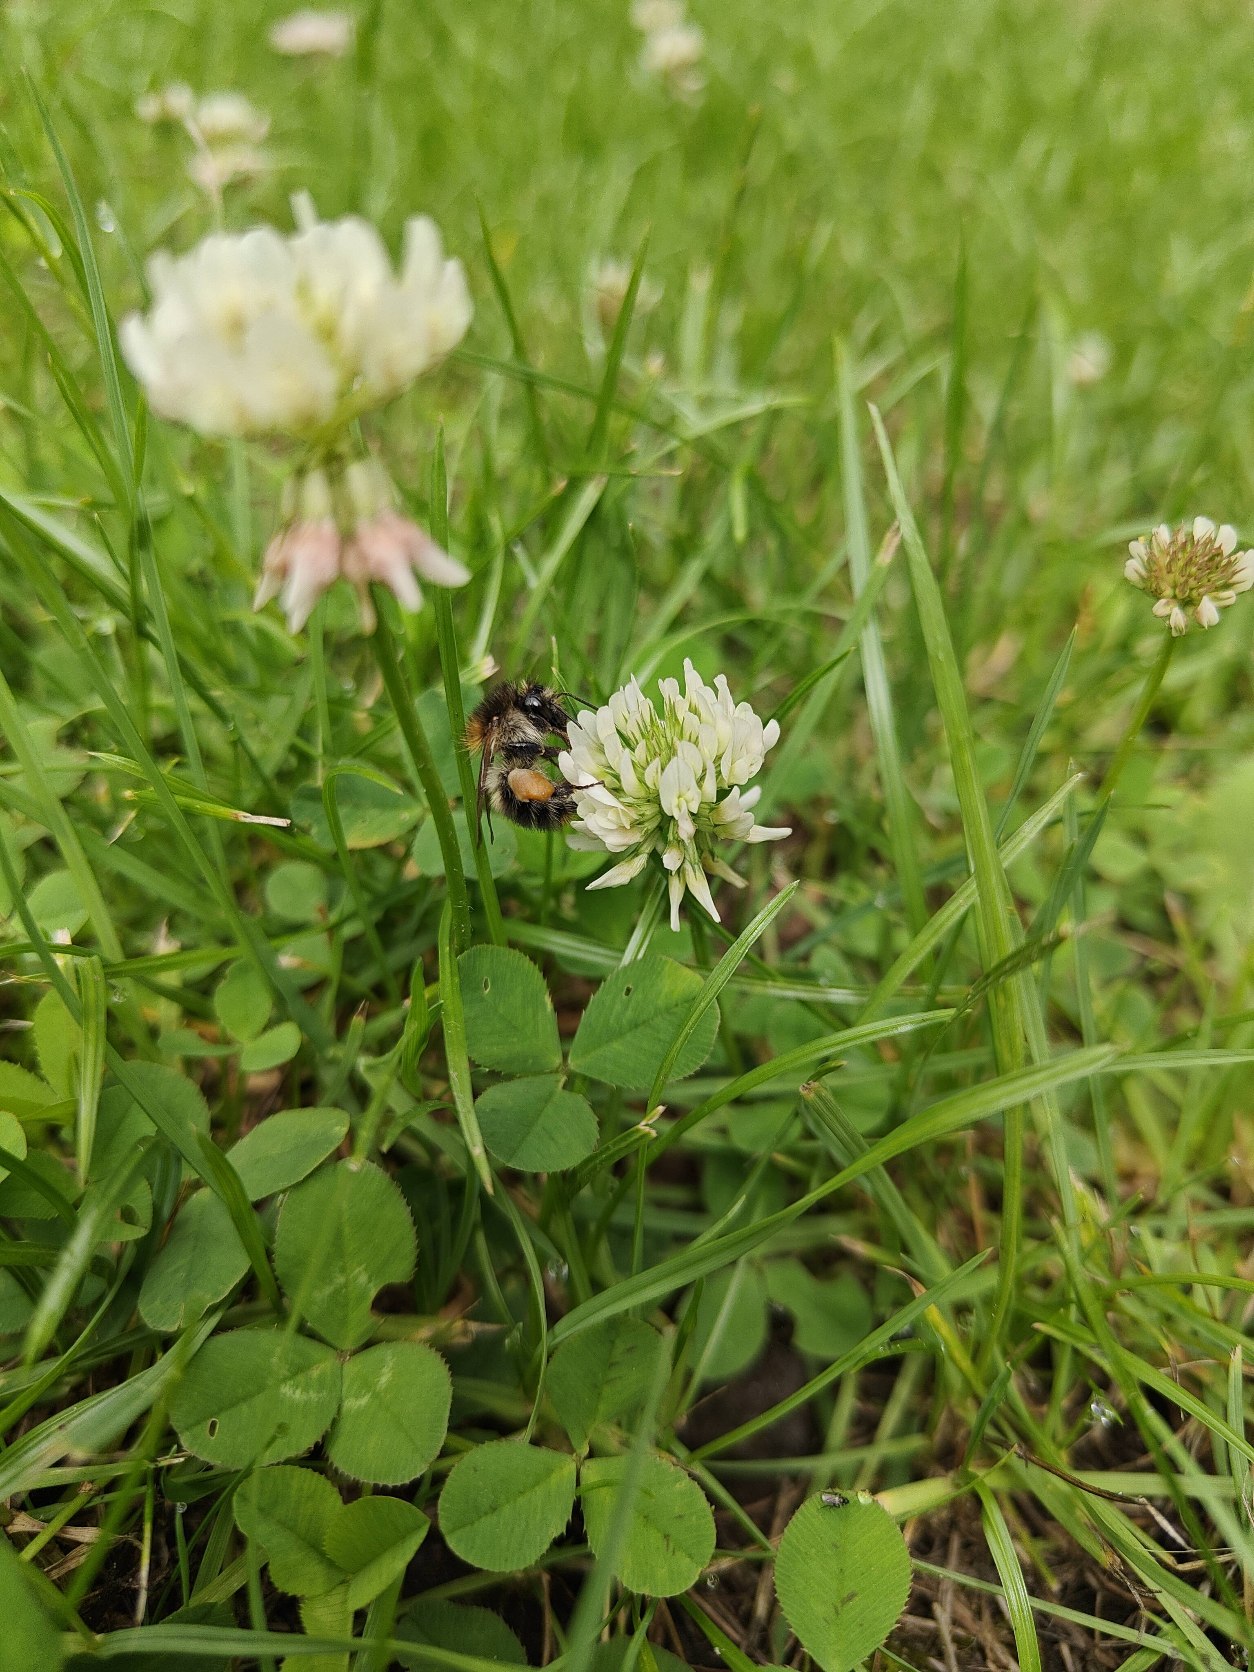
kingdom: Plantae
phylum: Tracheophyta
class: Magnoliopsida
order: Fabales
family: Fabaceae
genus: Trifolium
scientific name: Trifolium repens
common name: Hvid-kløver
